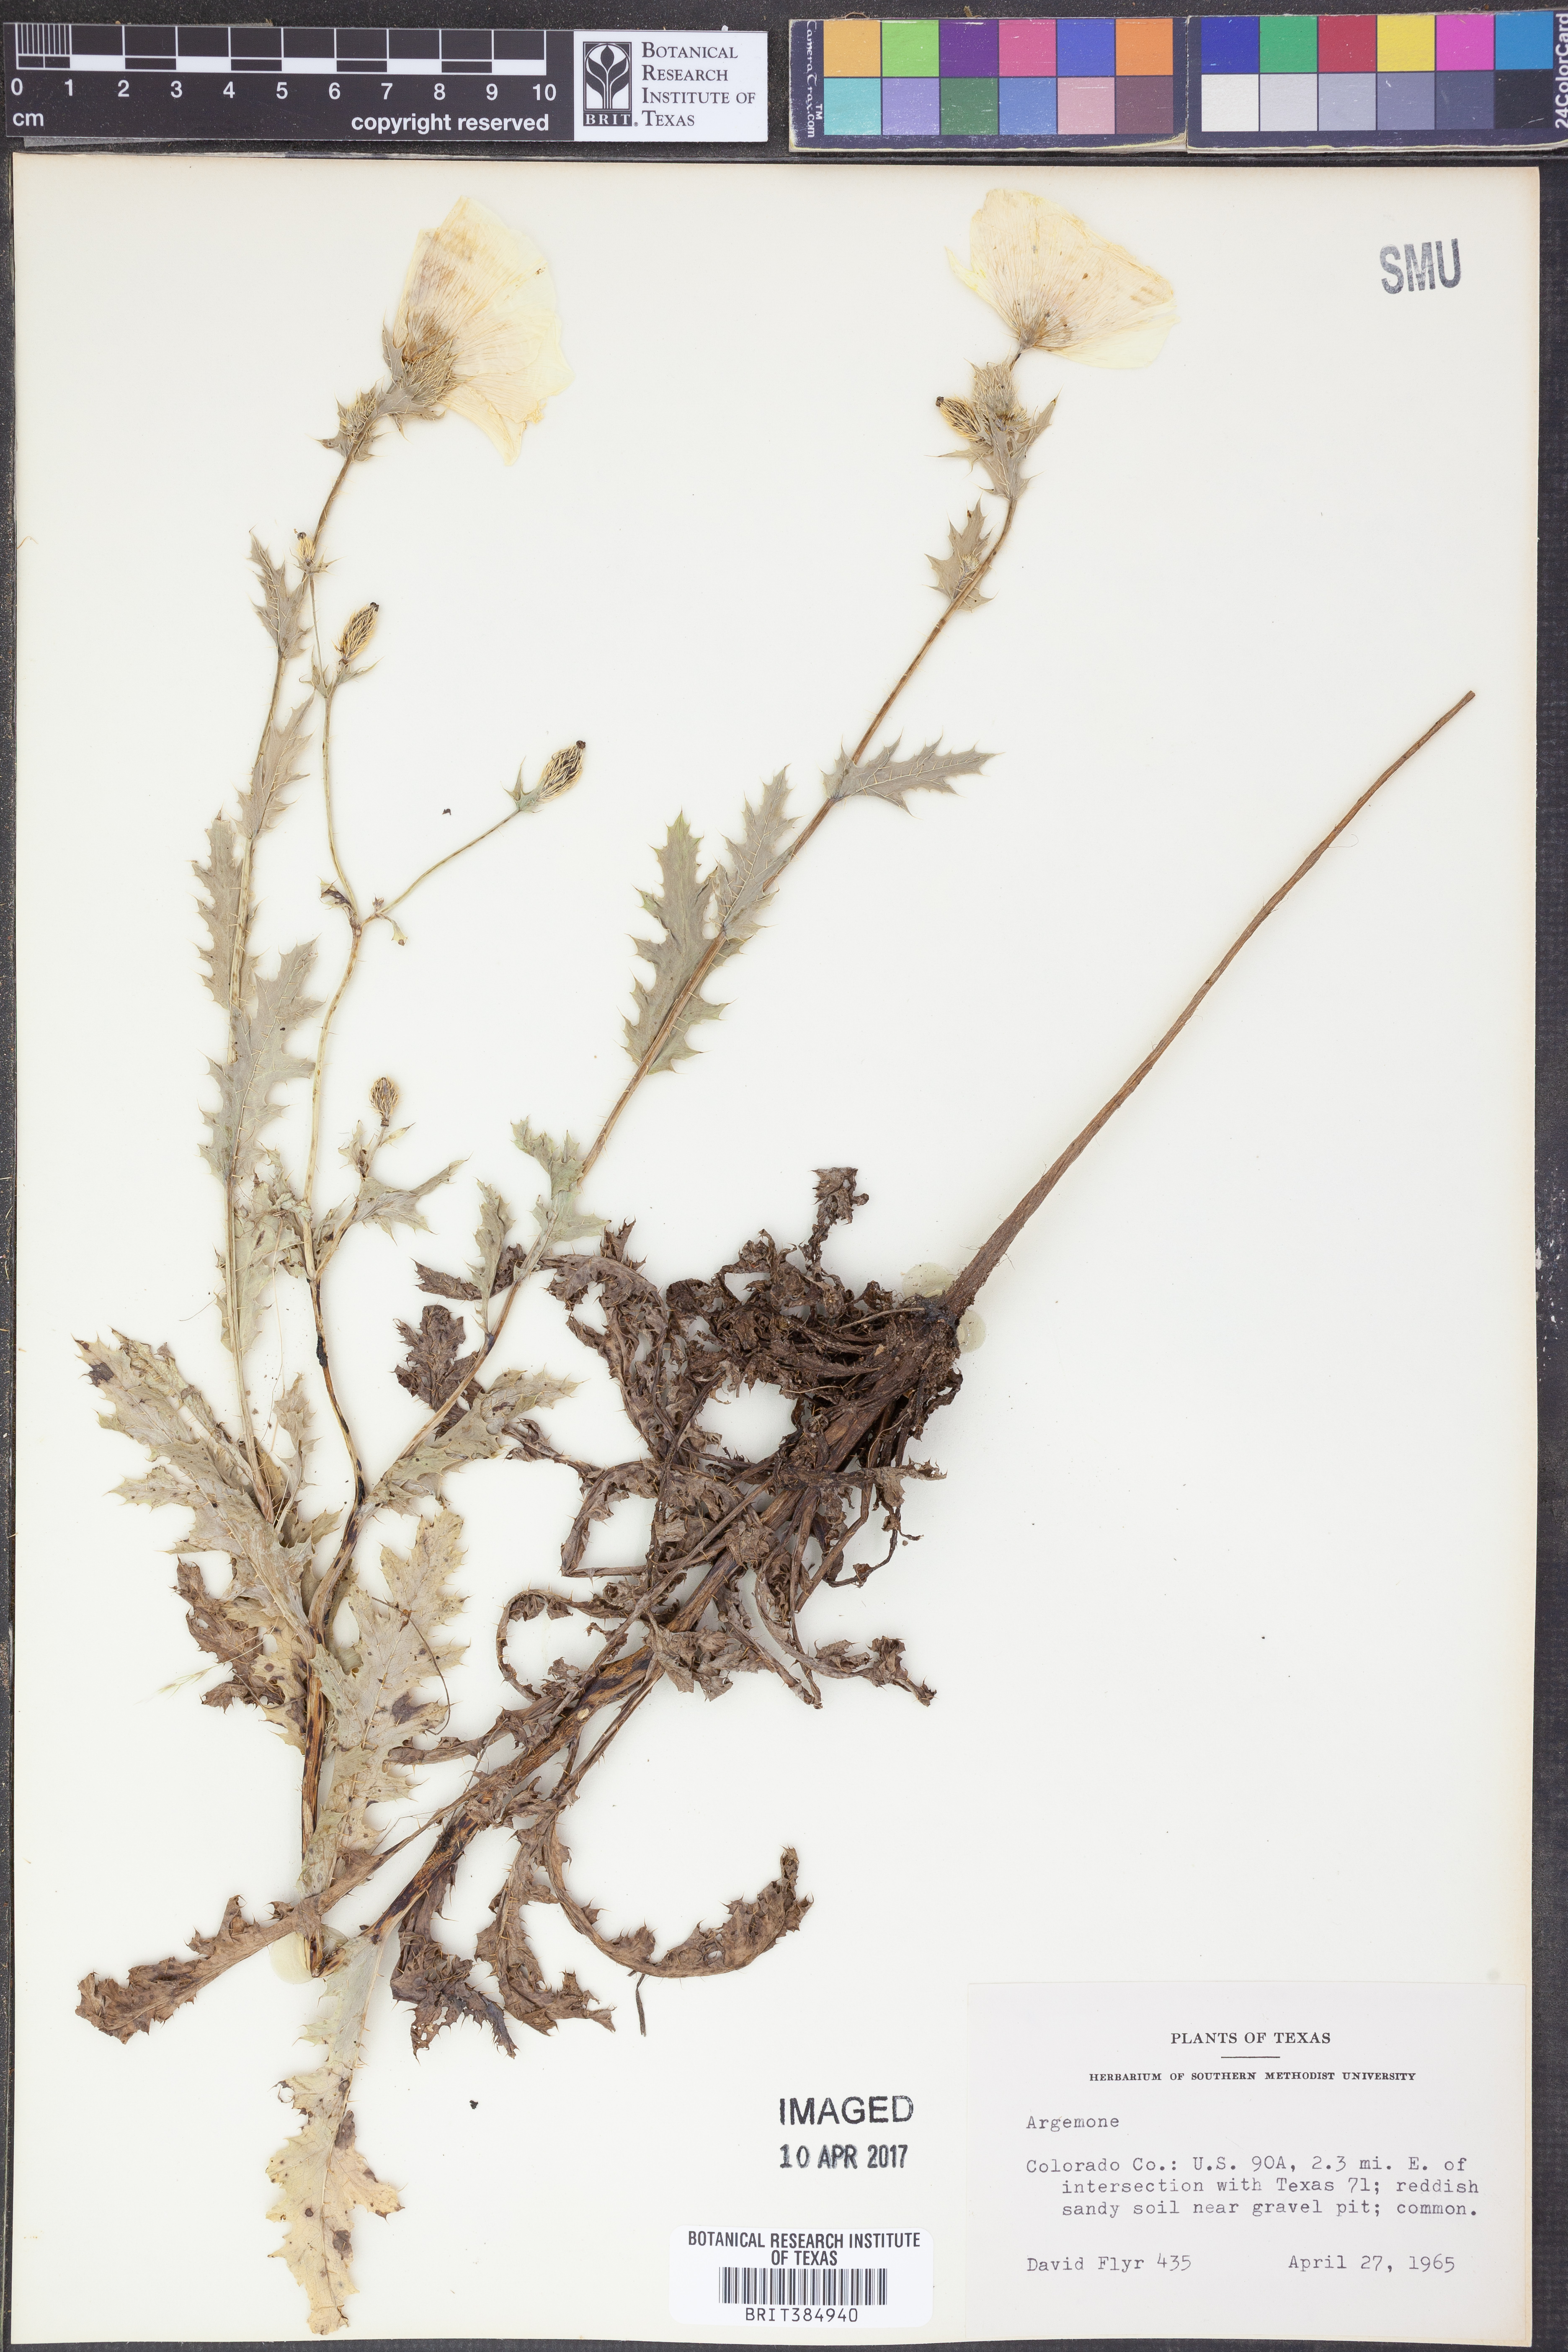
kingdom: Plantae
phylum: Tracheophyta
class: Magnoliopsida
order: Ranunculales
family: Papaveraceae
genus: Argemone
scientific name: Argemone
